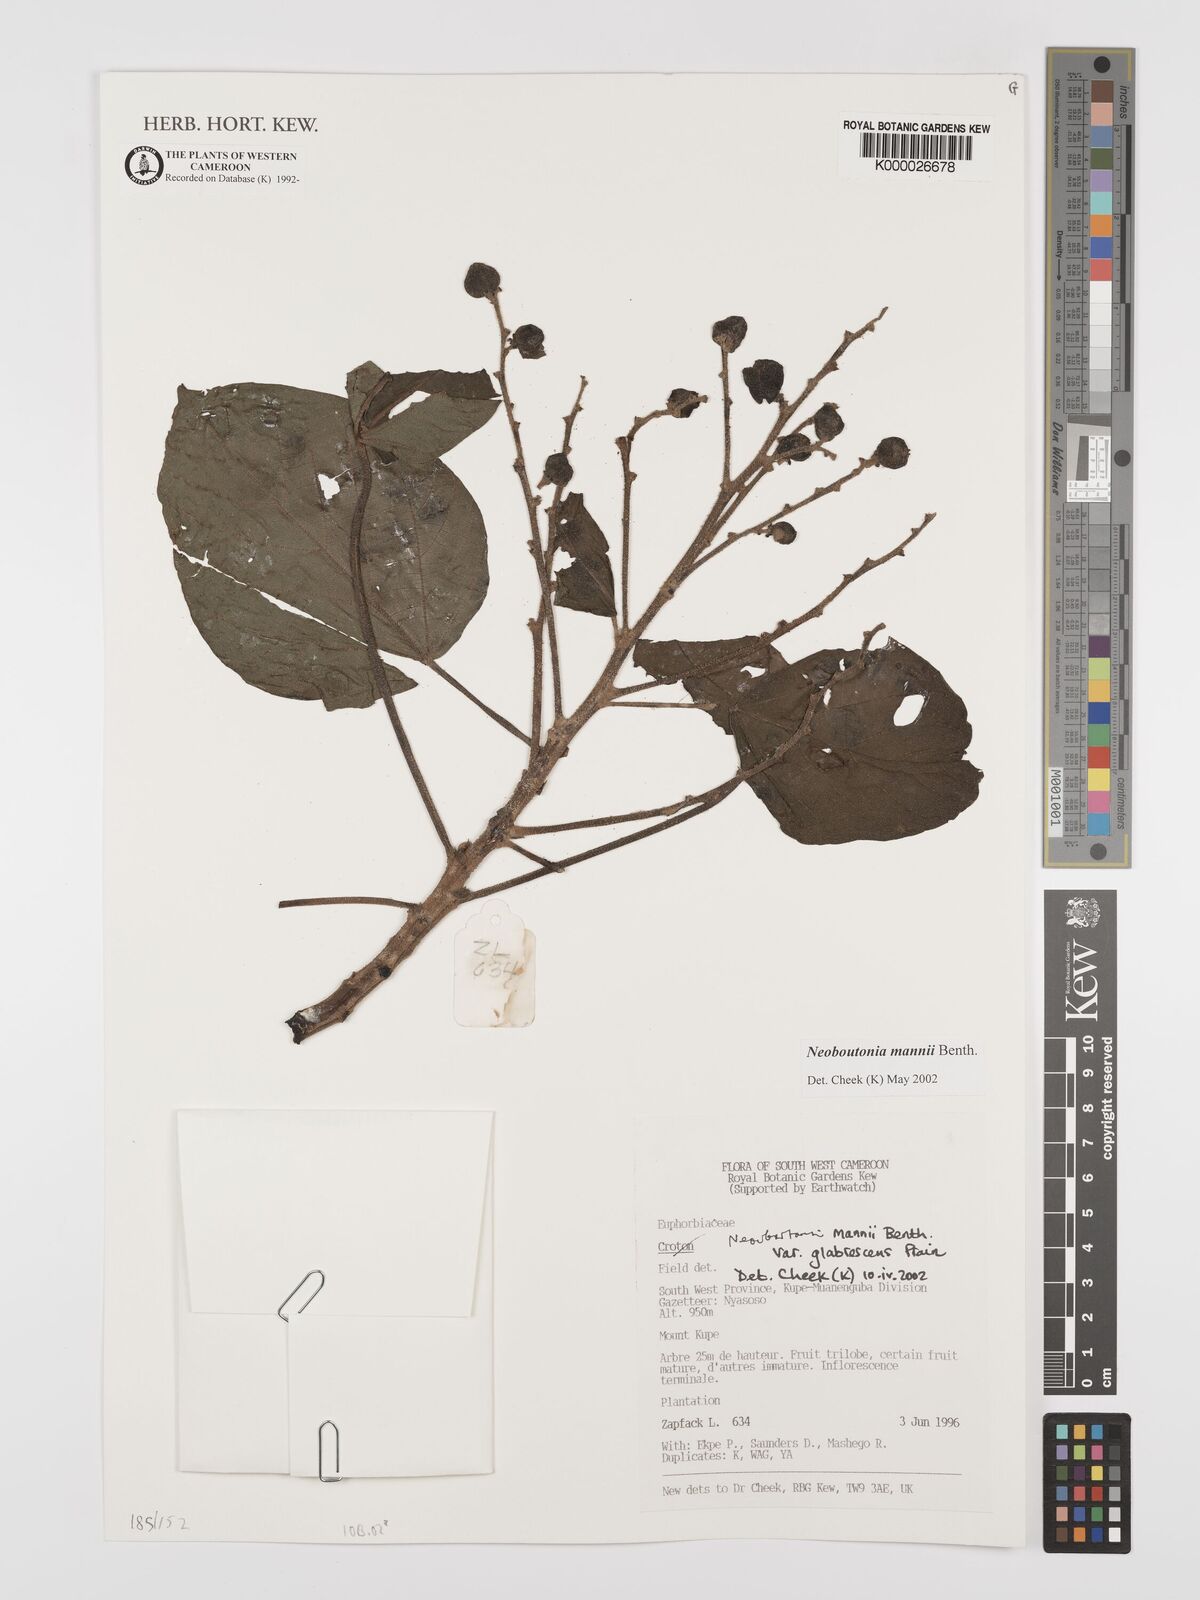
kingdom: Plantae
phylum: Tracheophyta
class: Magnoliopsida
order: Malpighiales
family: Euphorbiaceae
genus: Neoboutonia
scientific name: Neoboutonia mannii
